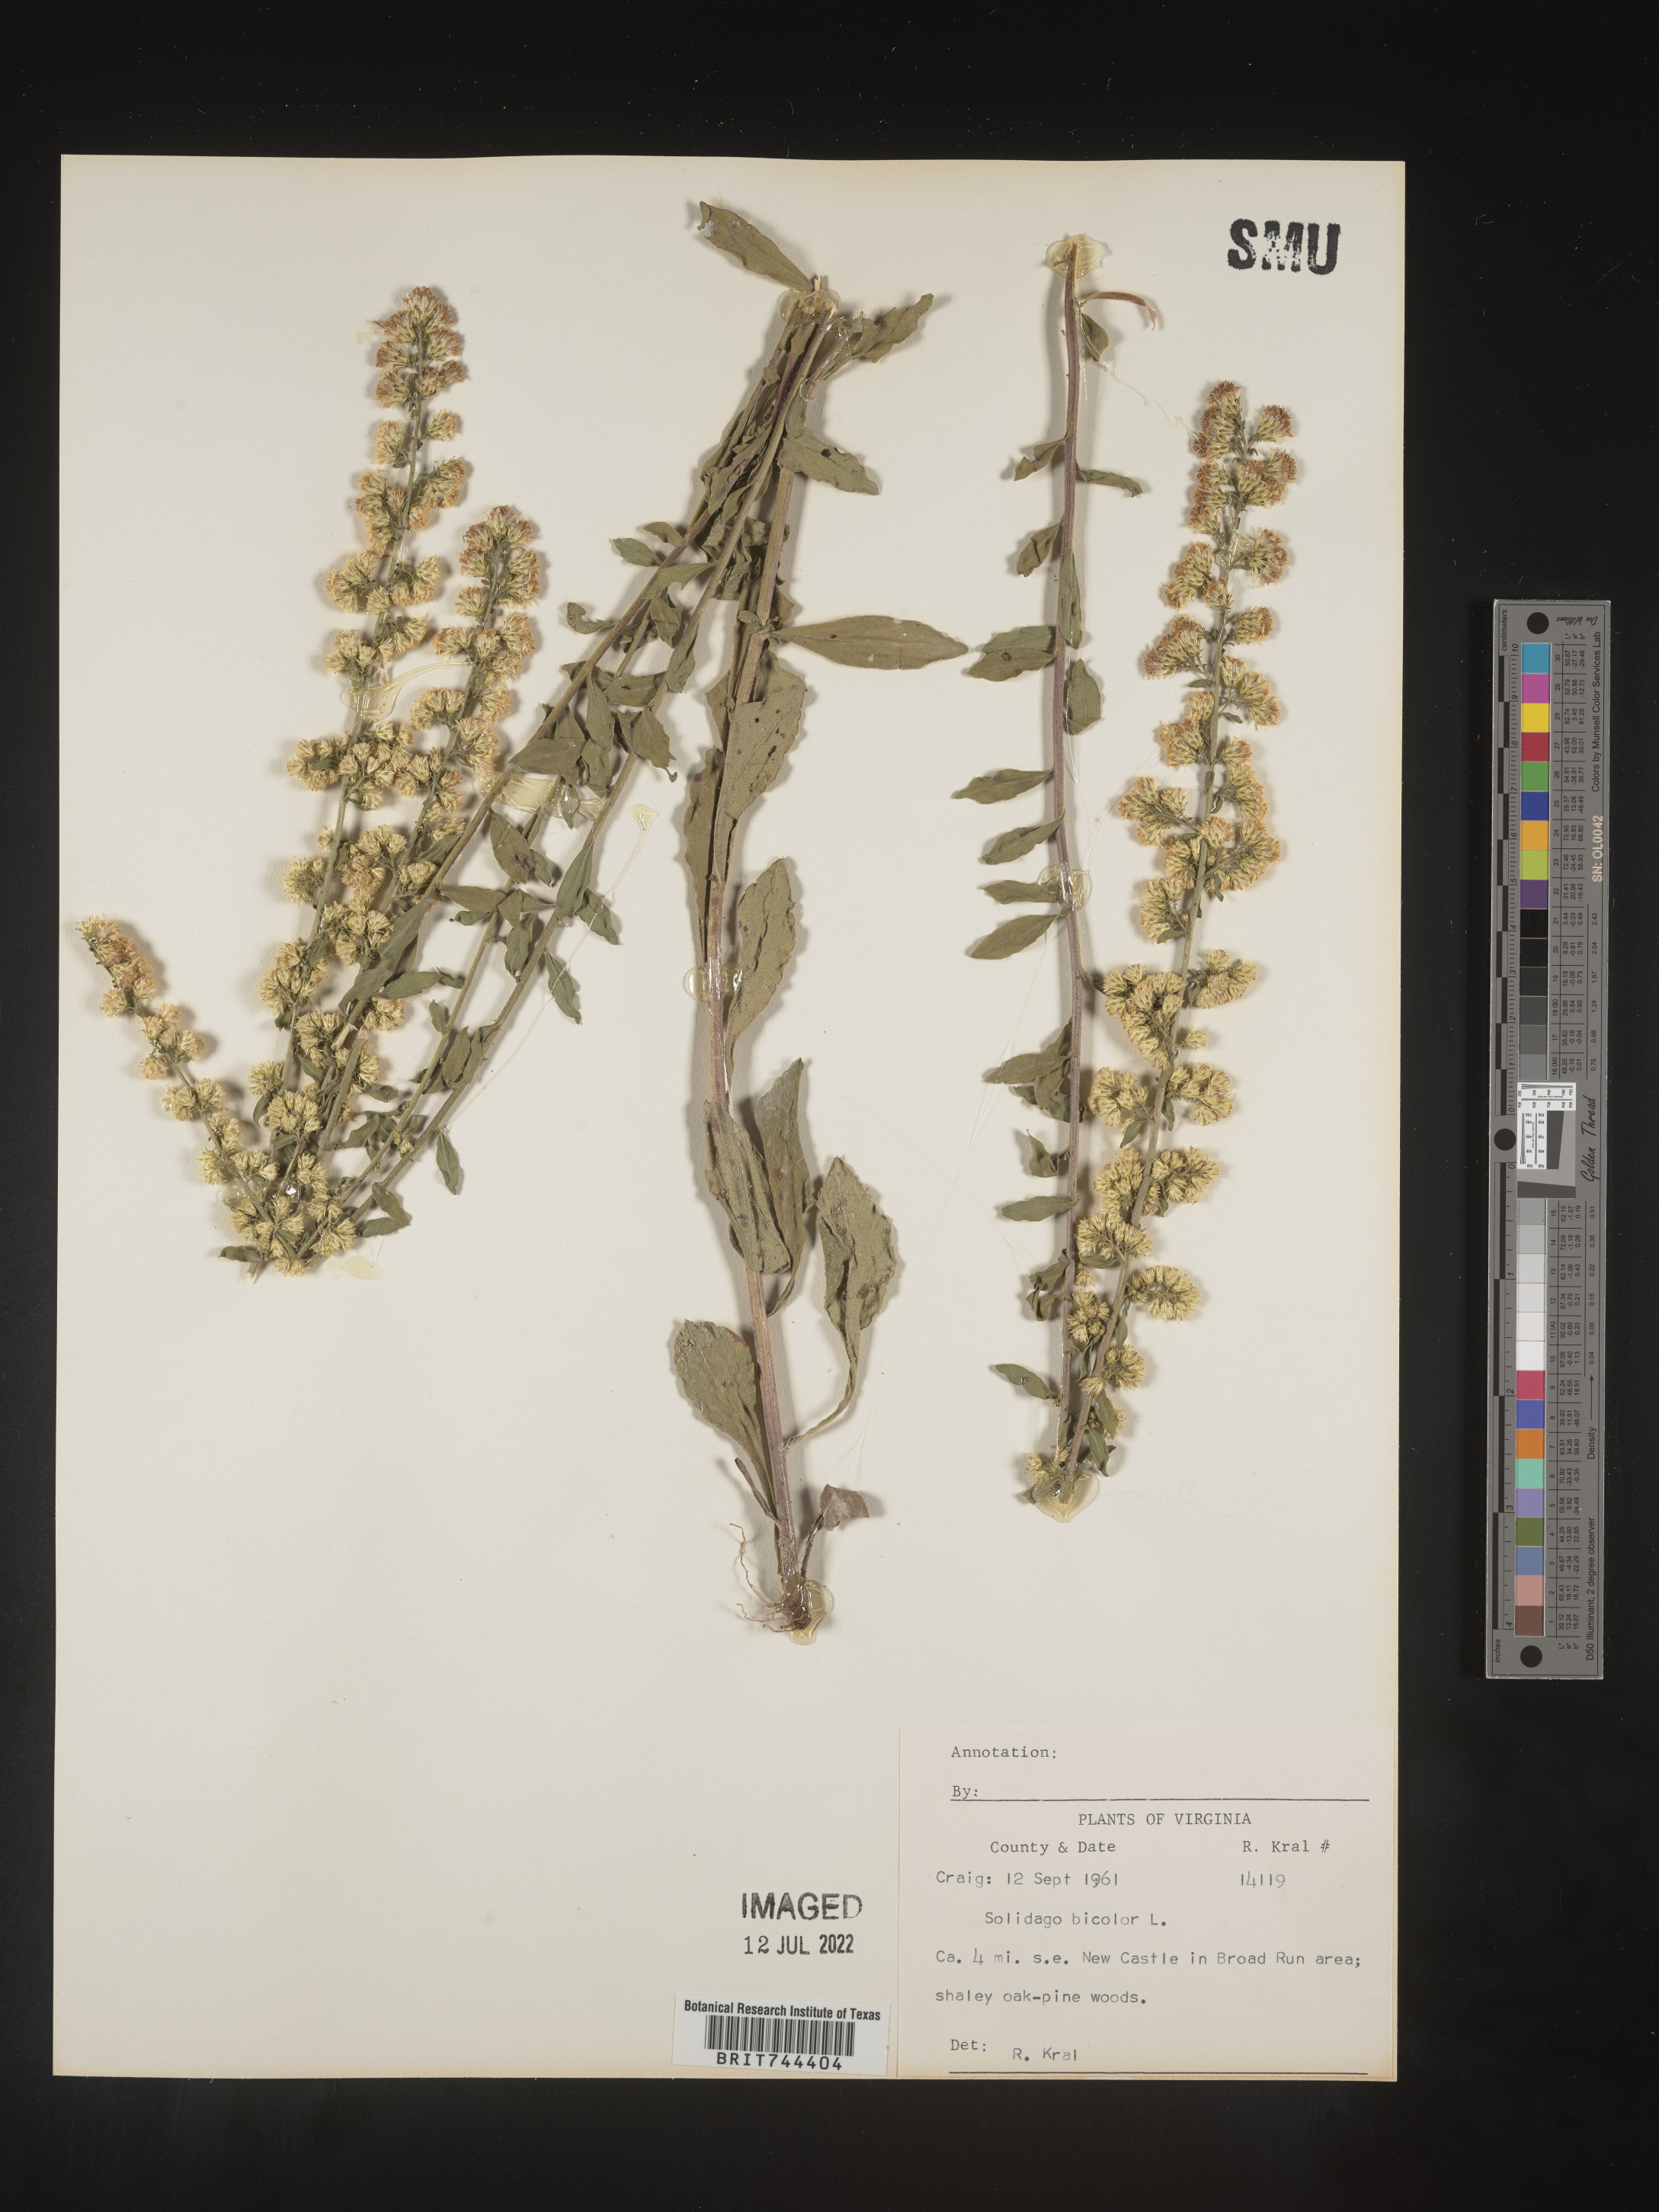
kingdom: Plantae
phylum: Tracheophyta
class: Magnoliopsida
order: Asterales
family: Asteraceae
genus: Solidago
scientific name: Solidago bicolor
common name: Silverrod
